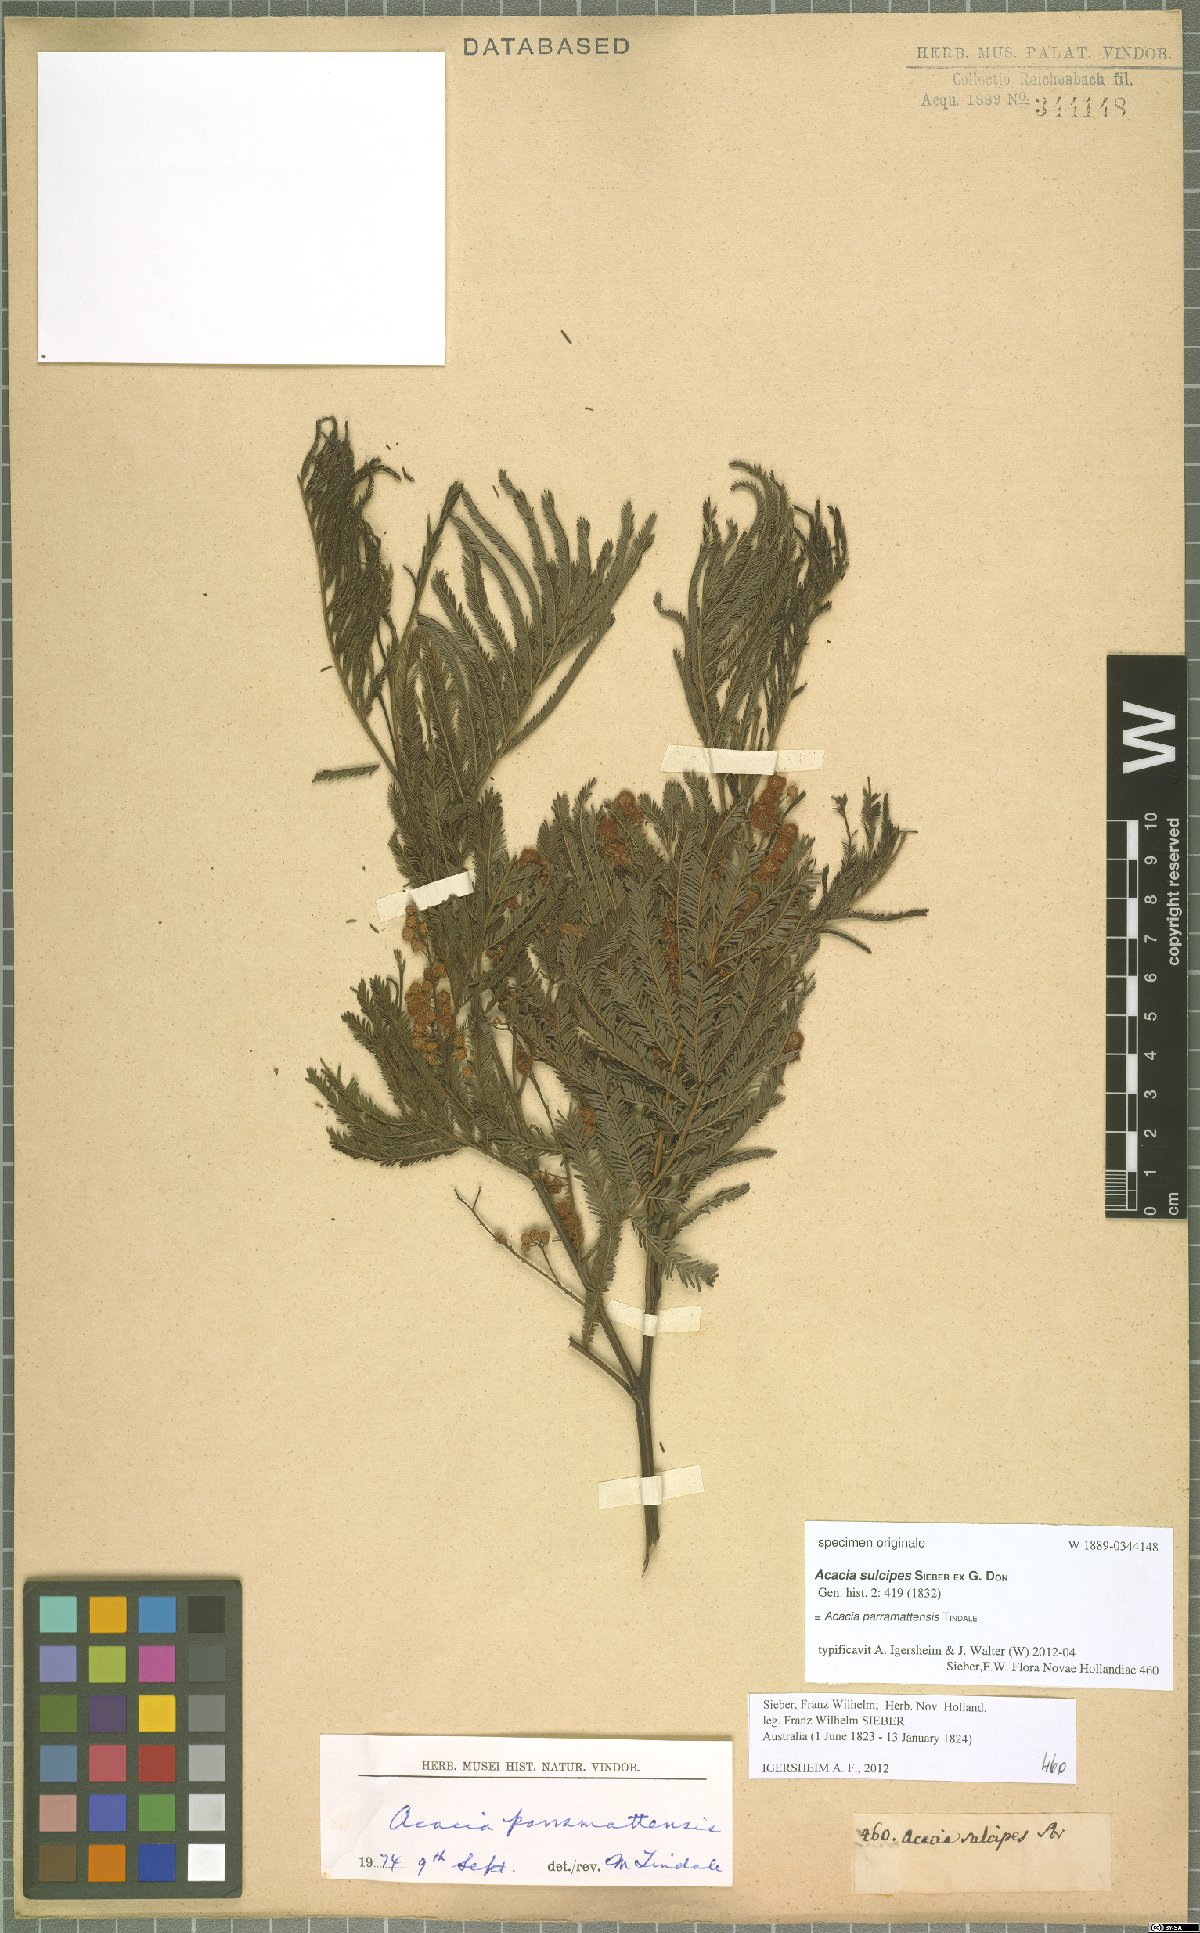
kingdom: Plantae
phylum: Tracheophyta
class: Magnoliopsida
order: Fabales
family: Fabaceae
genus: Acacia
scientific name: Acacia parramattensis
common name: Sydney green wattle
